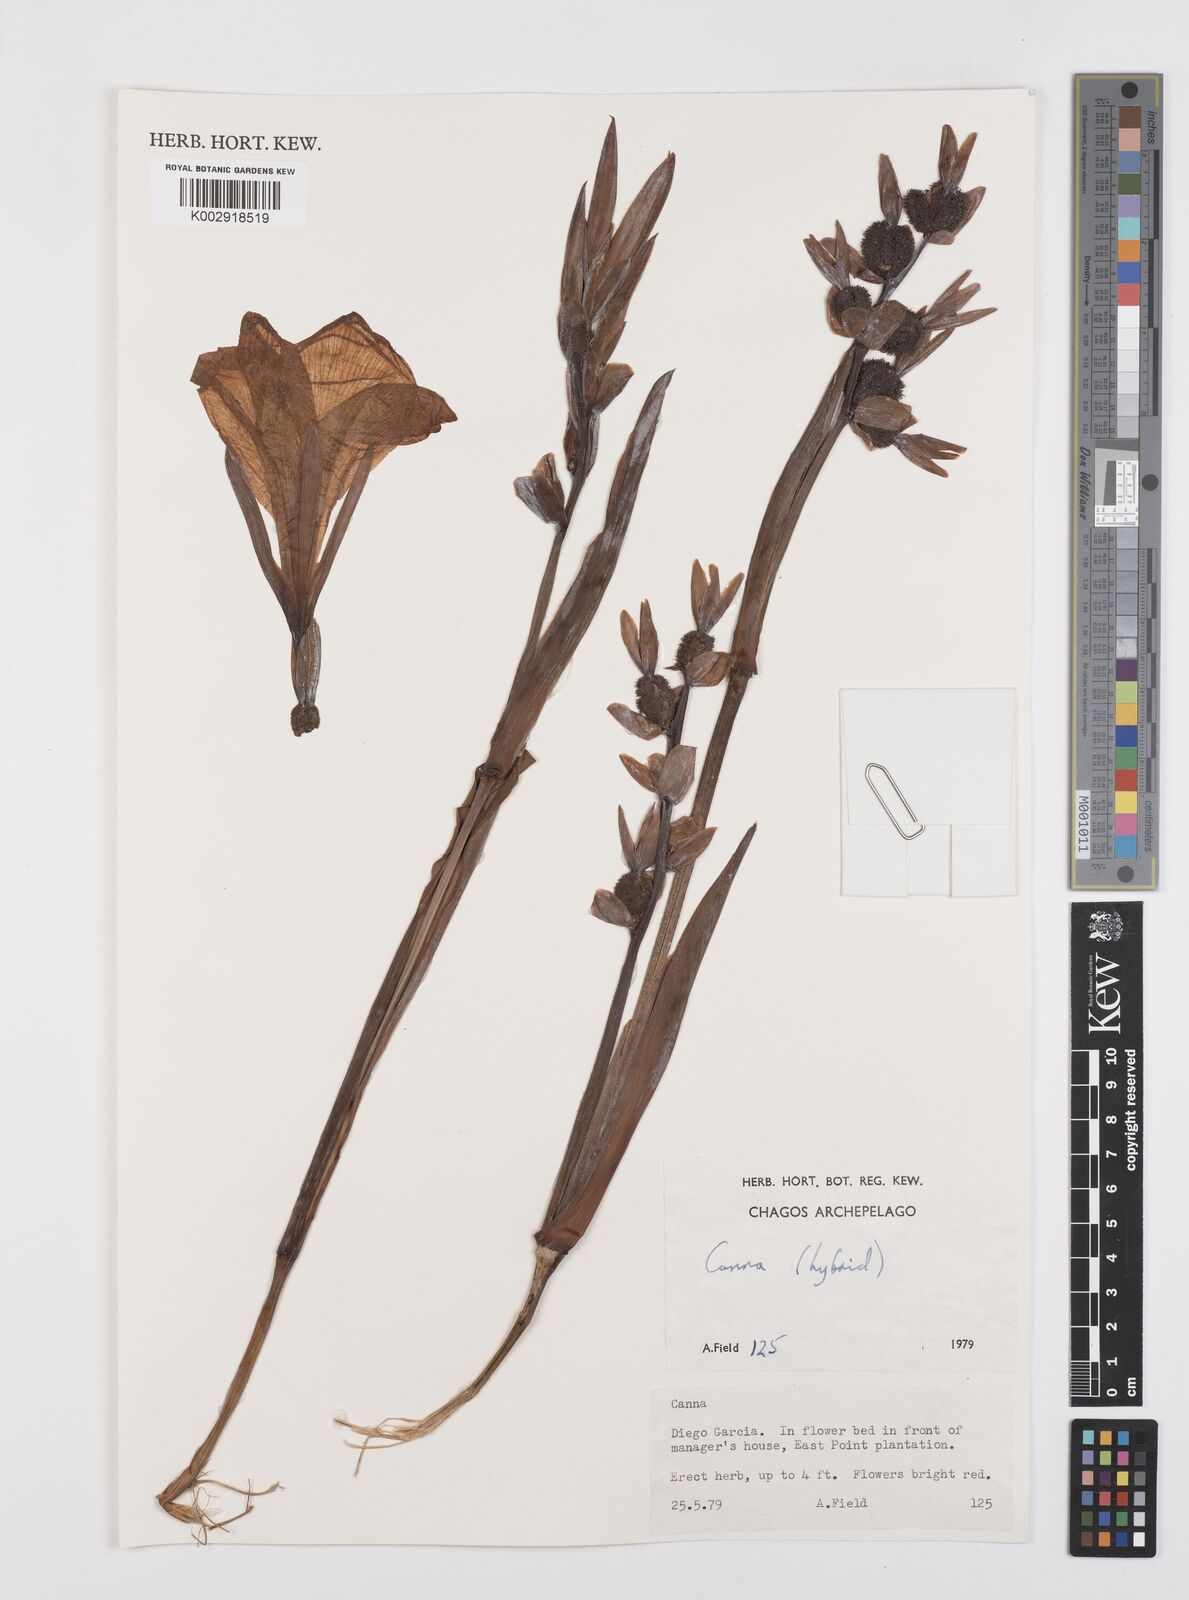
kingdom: Plantae
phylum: Tracheophyta
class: Liliopsida
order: Zingiberales
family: Cannaceae
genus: Canna
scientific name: Canna
